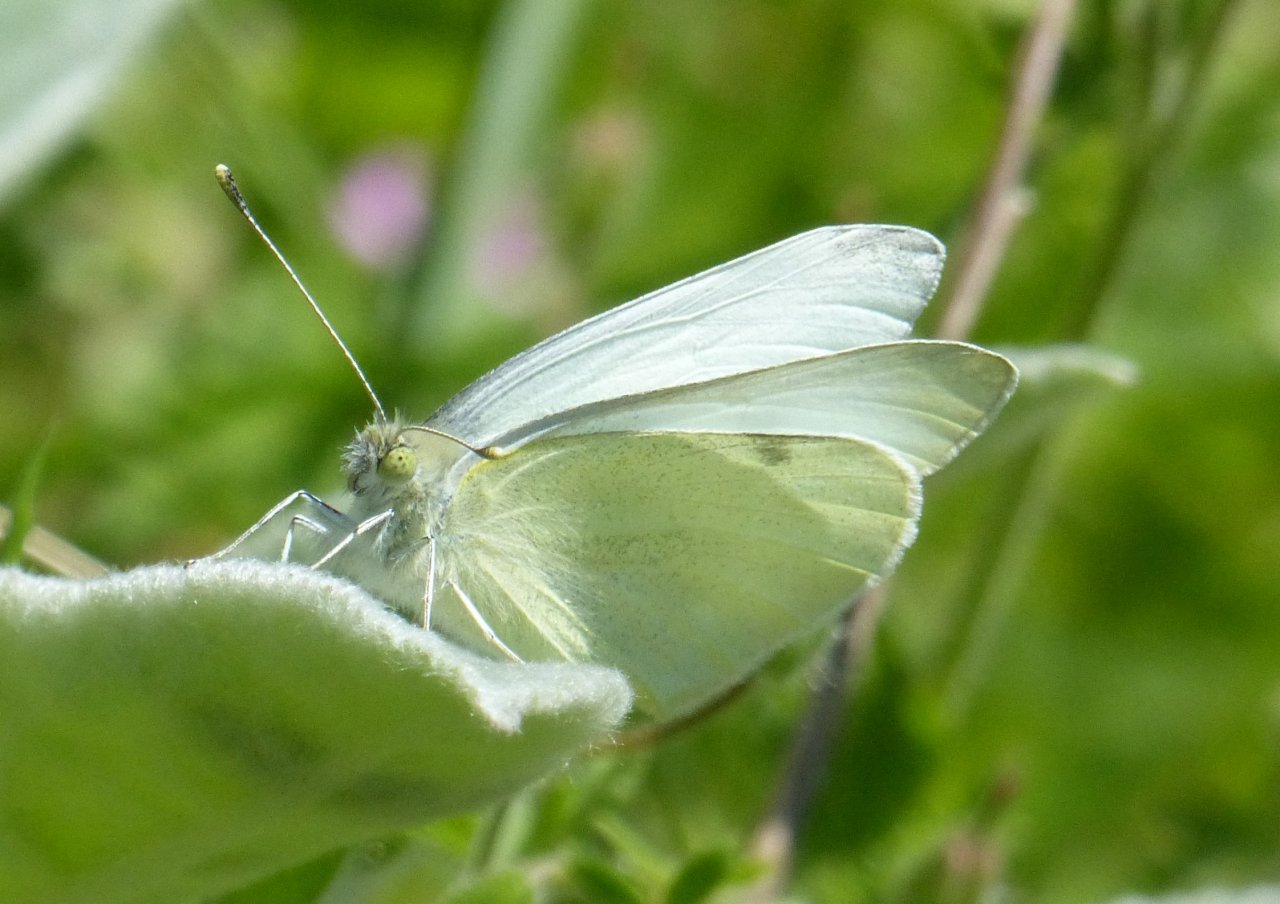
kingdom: Animalia
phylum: Arthropoda
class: Insecta
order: Lepidoptera
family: Pieridae
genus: Pieris
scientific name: Pieris rapae
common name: Cabbage White
